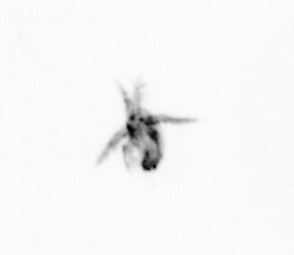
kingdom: Animalia
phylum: Arthropoda
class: Copepoda
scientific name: Copepoda
